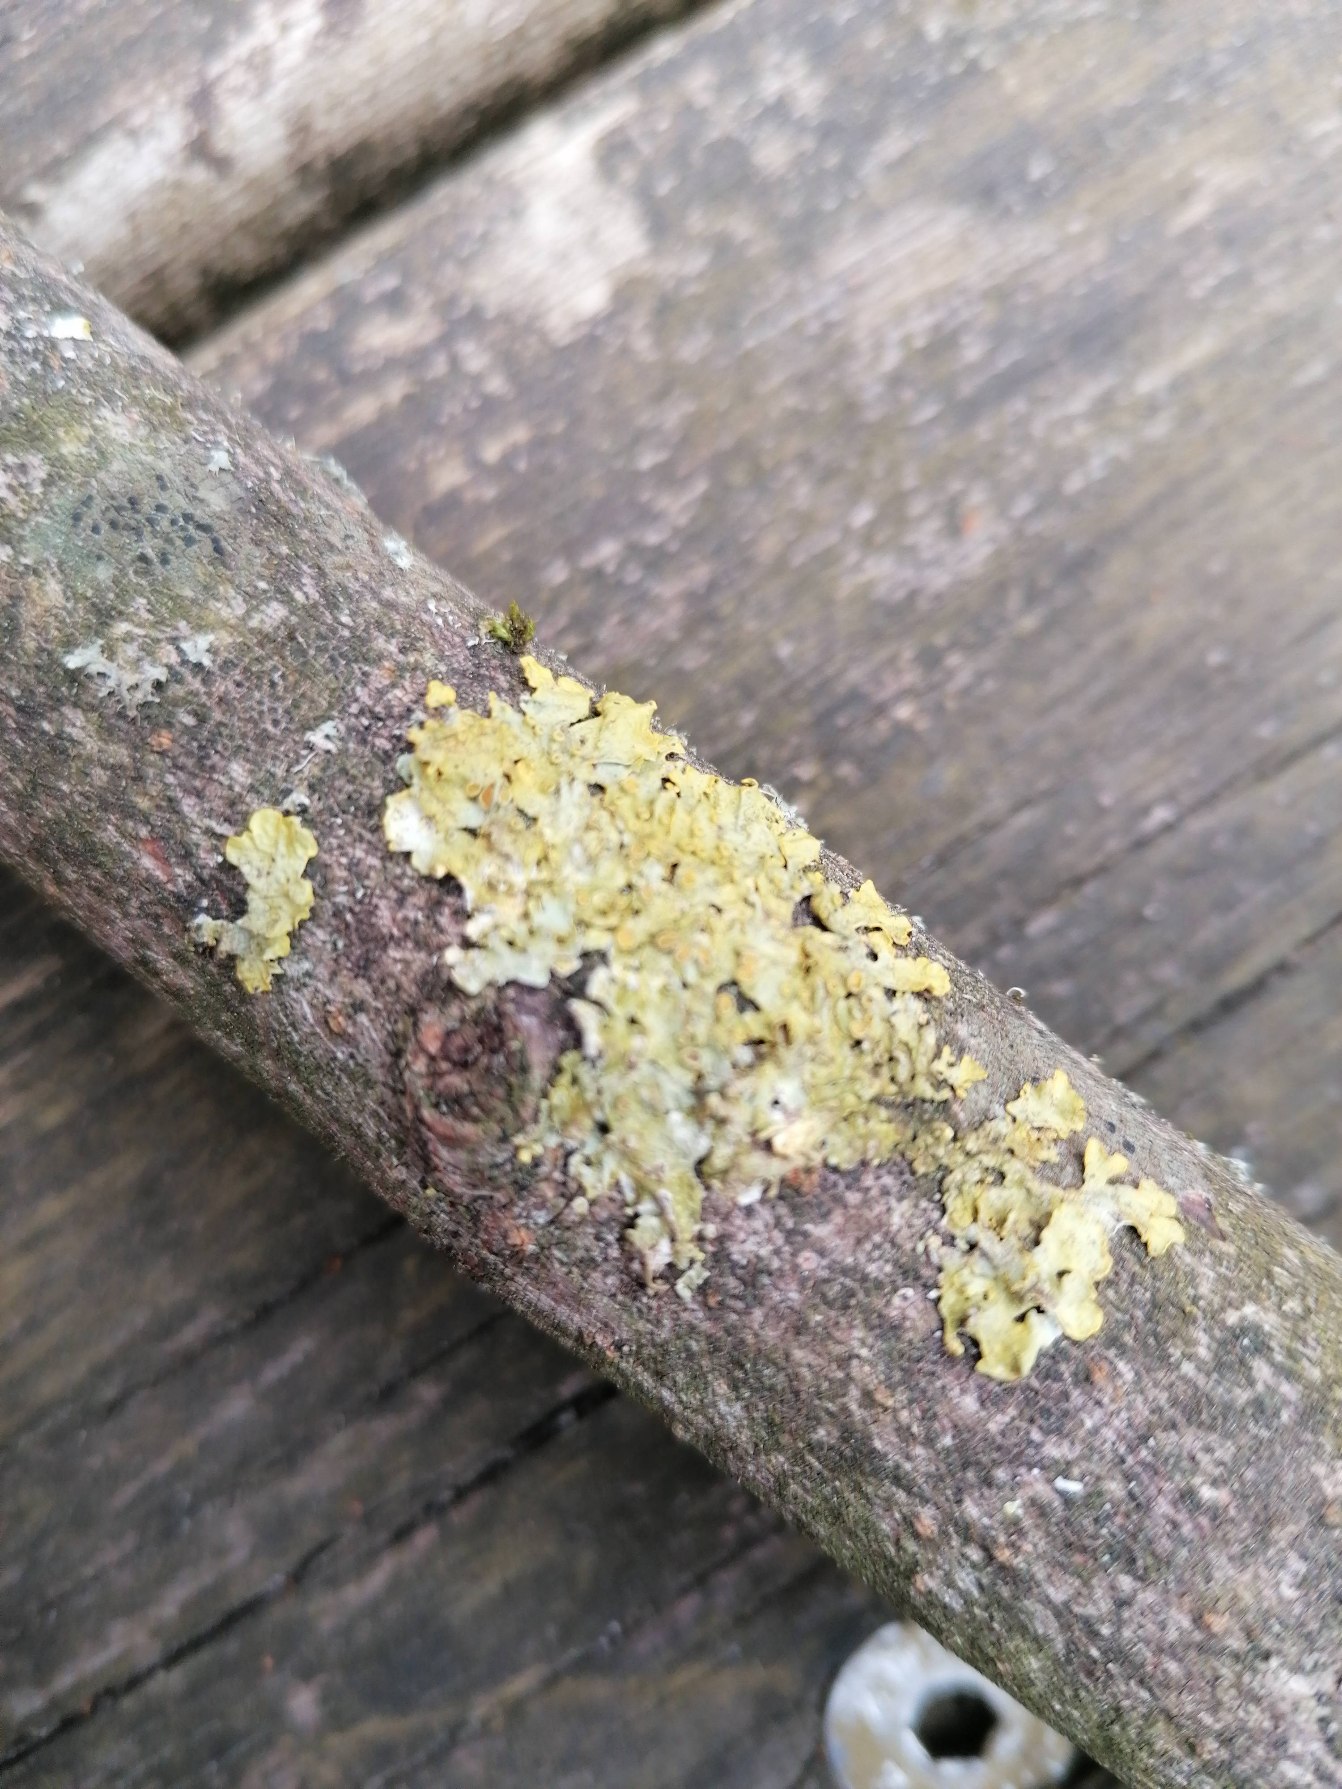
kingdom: Fungi
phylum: Ascomycota
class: Lecanoromycetes
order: Teloschistales
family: Teloschistaceae
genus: Xanthoria
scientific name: Xanthoria parietina
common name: Almindelig væggelav
